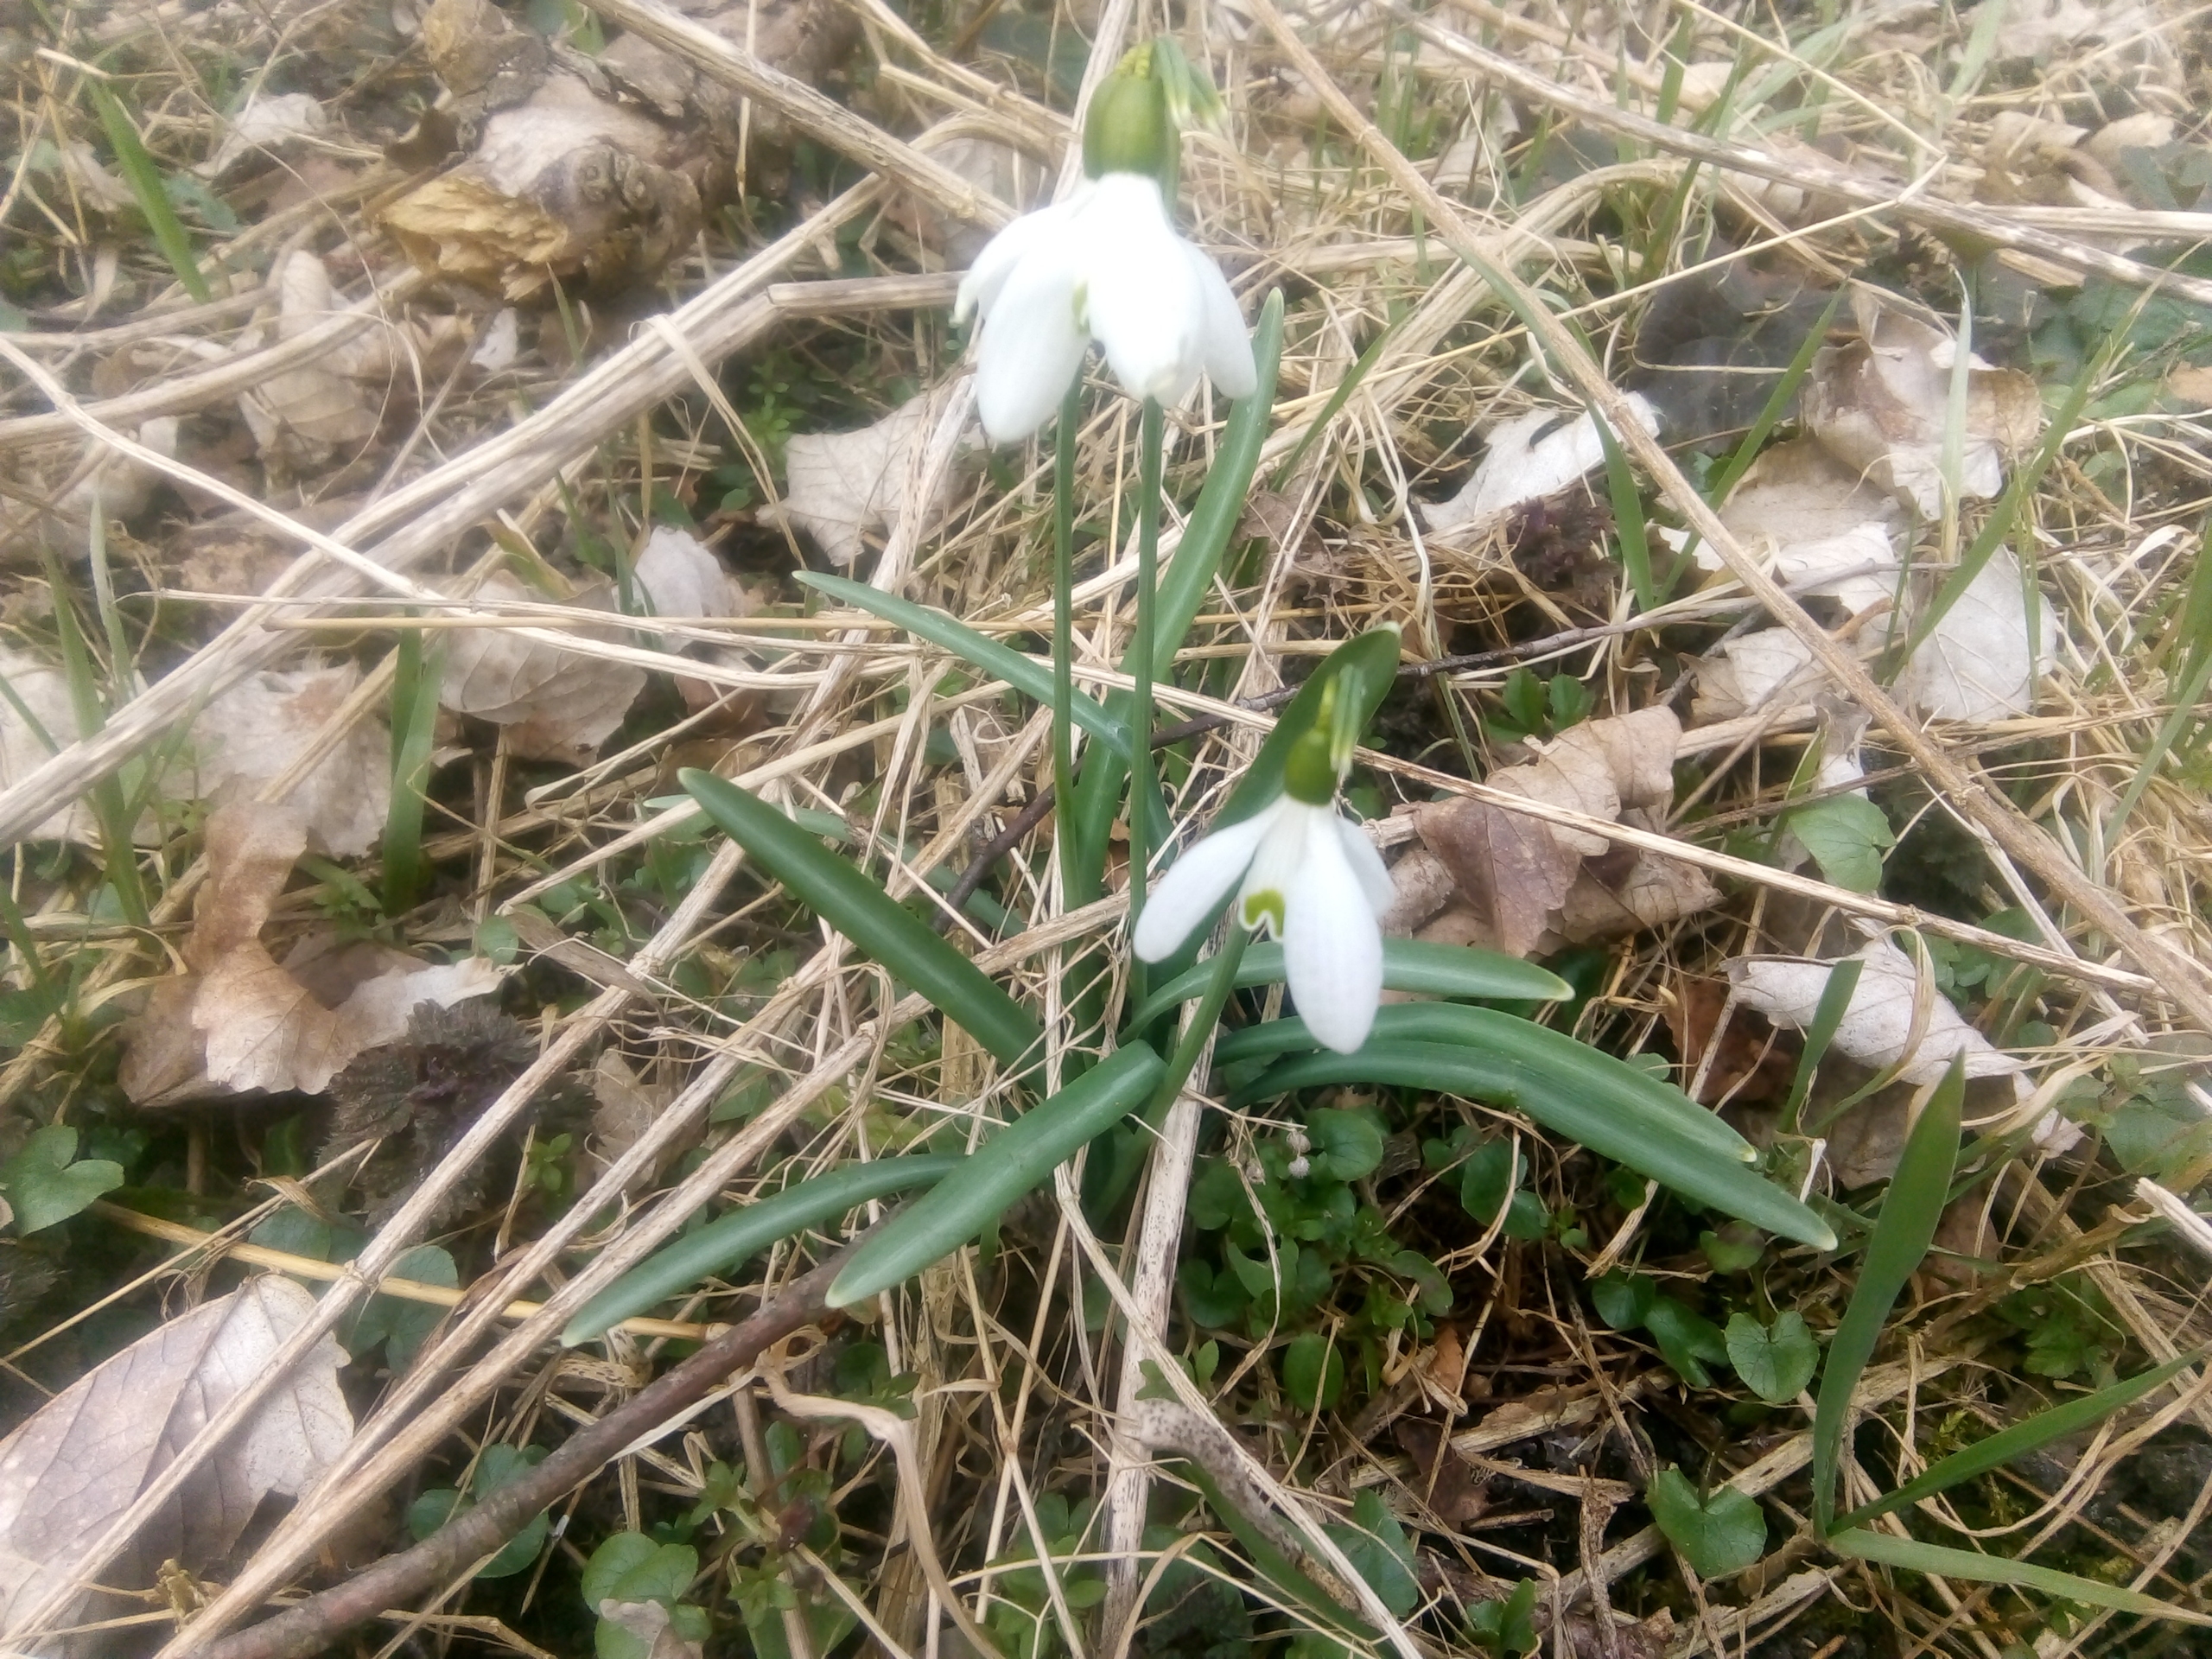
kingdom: Plantae
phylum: Tracheophyta
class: Liliopsida
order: Asparagales
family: Amaryllidaceae
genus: Galanthus
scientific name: Galanthus nivalis
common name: Vintergæk
